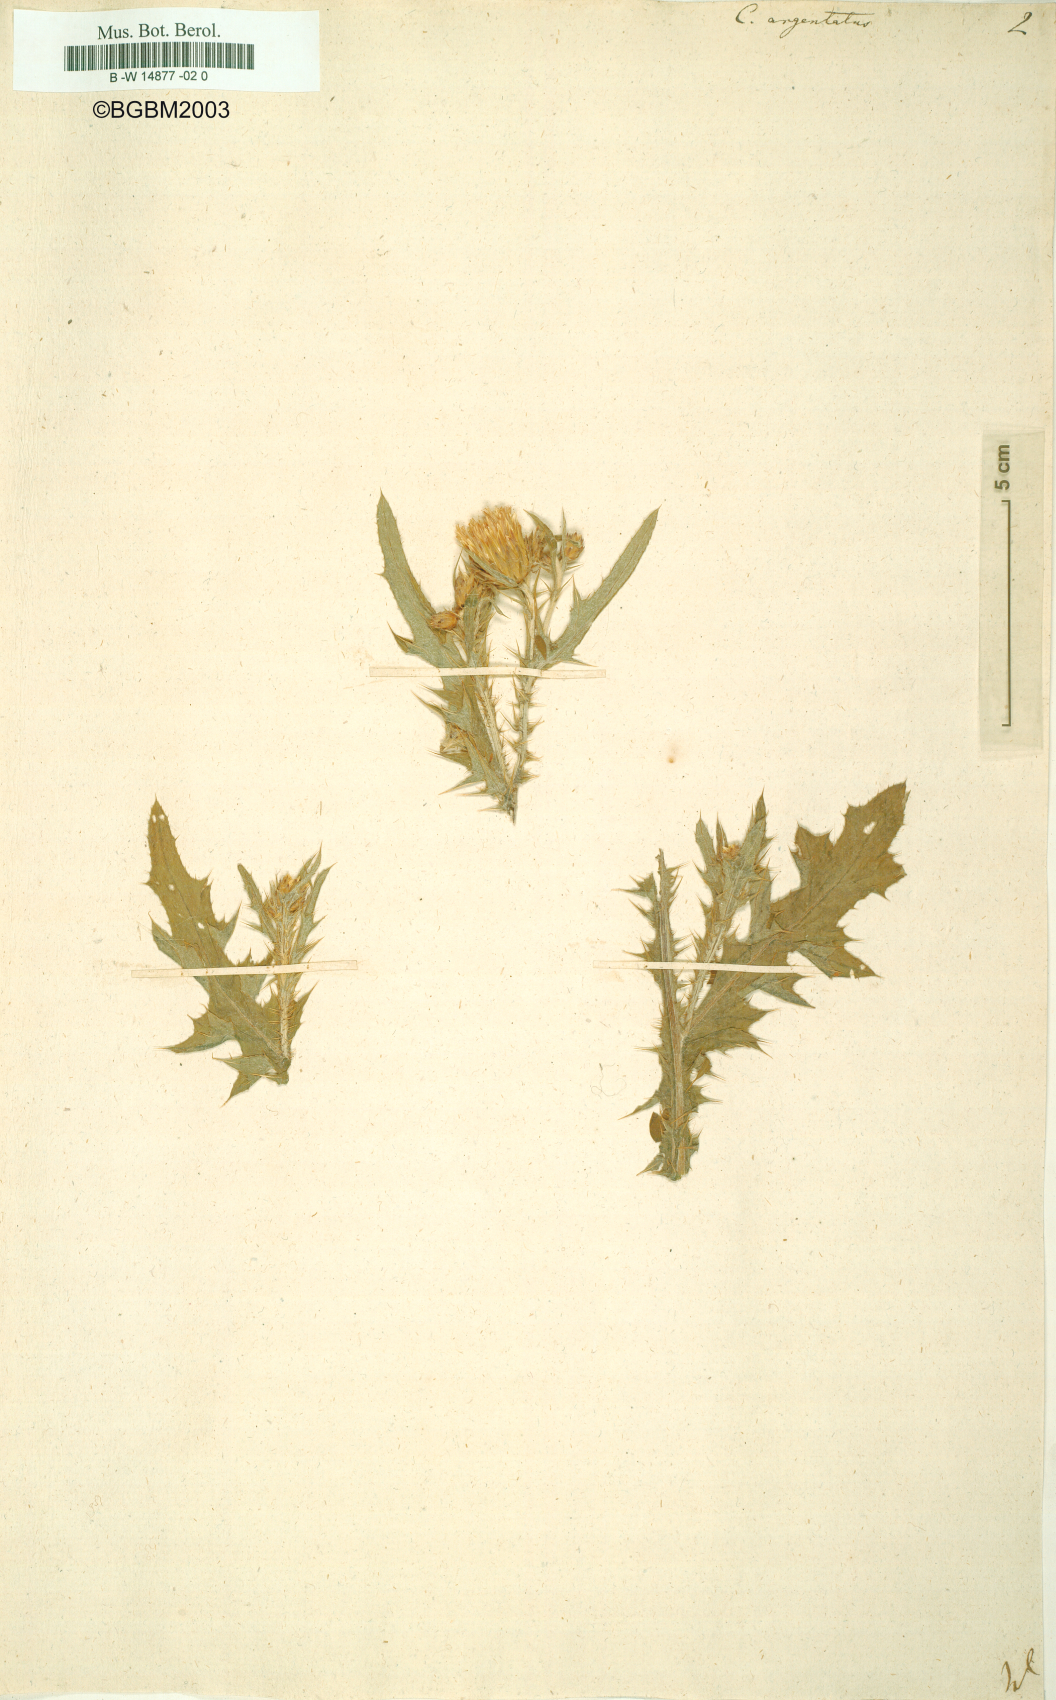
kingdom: Plantae
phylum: Tracheophyta
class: Magnoliopsida
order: Asterales
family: Asteraceae
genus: Carduus
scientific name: Carduus argentatus
